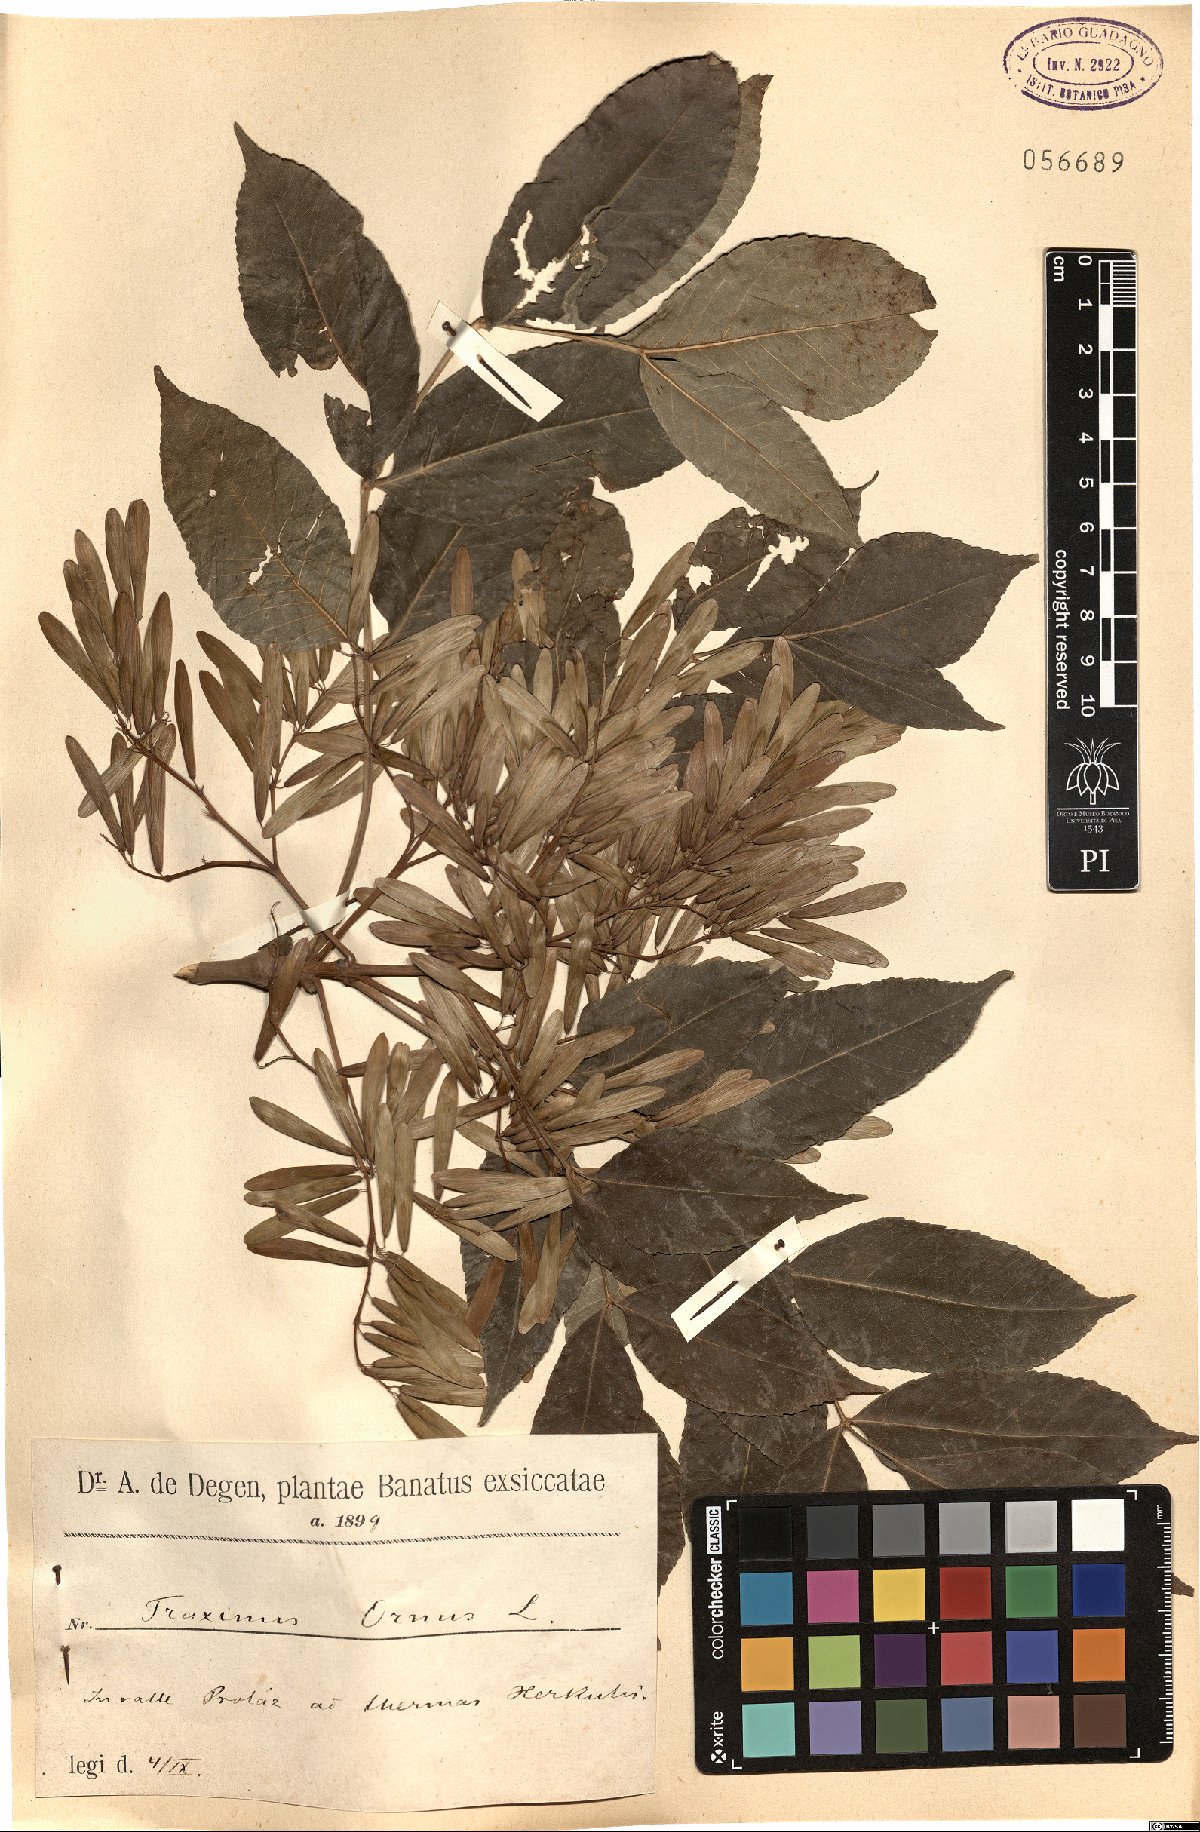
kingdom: Plantae
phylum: Tracheophyta
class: Magnoliopsida
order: Lamiales
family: Oleaceae
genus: Fraxinus
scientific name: Fraxinus ornus
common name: Manna ash
